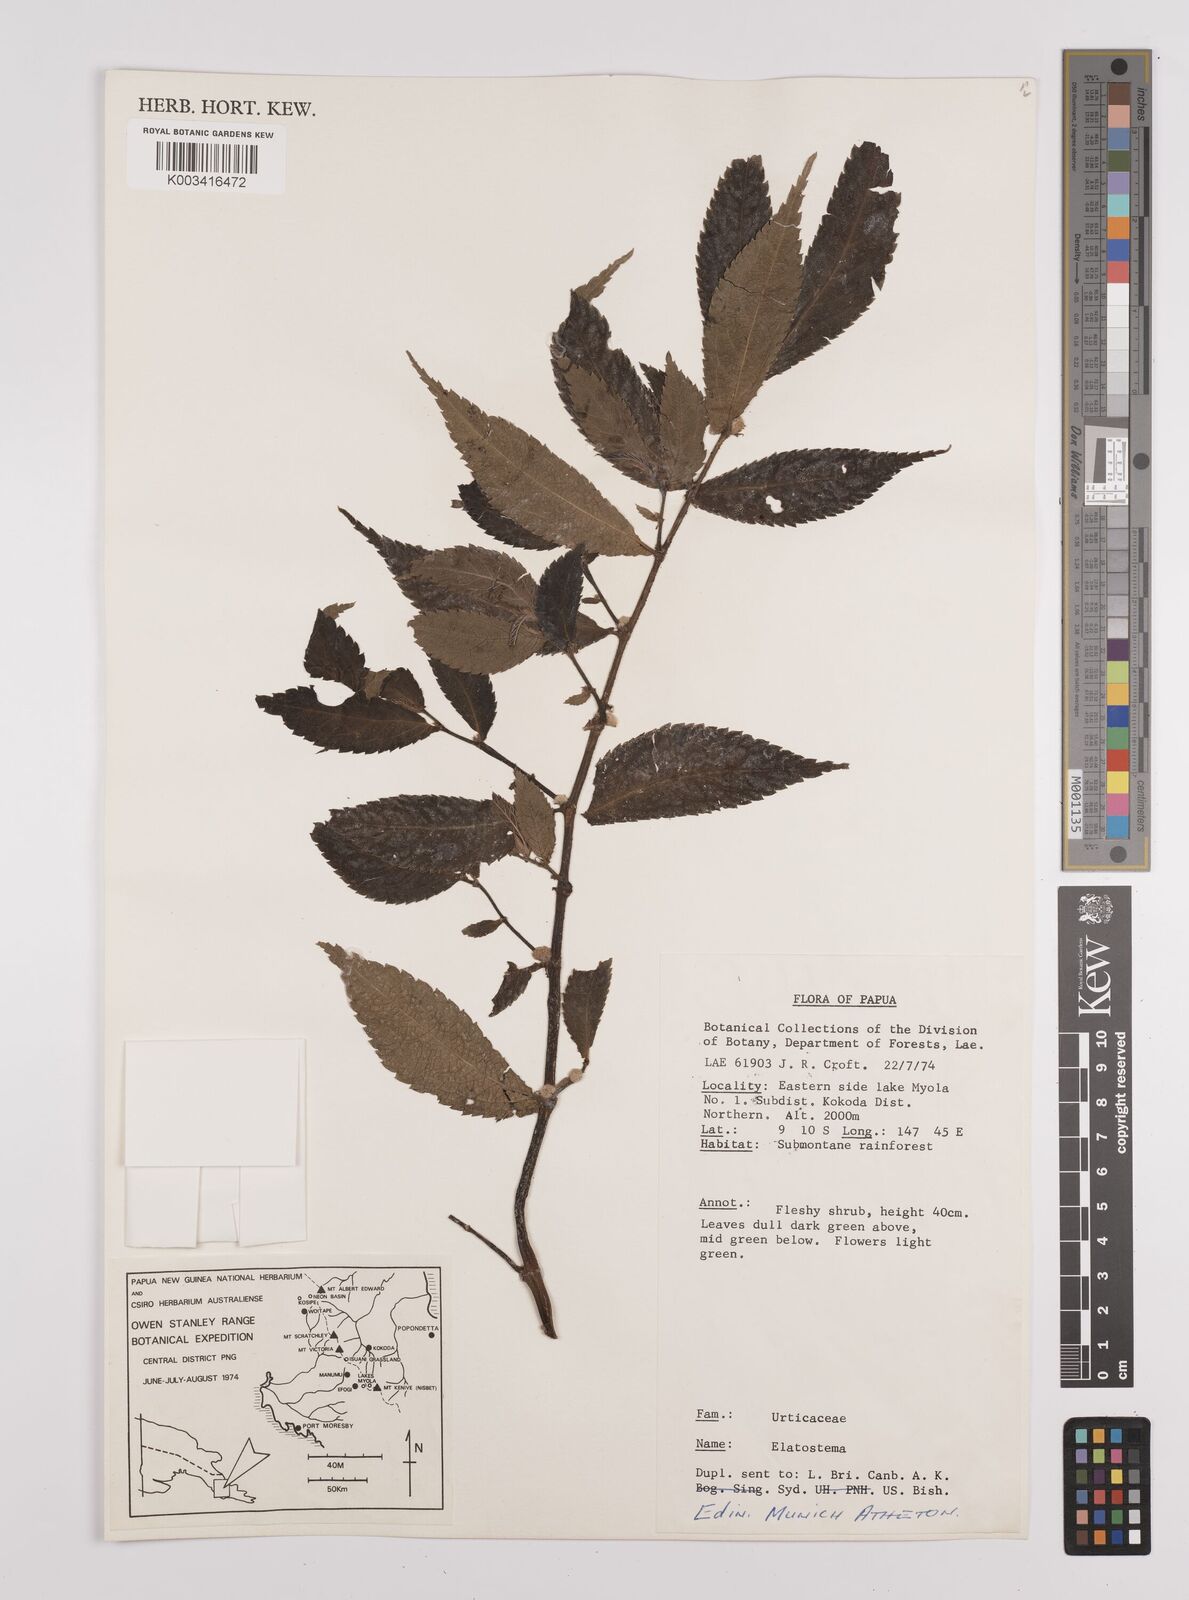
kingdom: Plantae
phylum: Tracheophyta
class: Magnoliopsida
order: Rosales
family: Urticaceae
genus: Elatostema
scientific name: Elatostema
